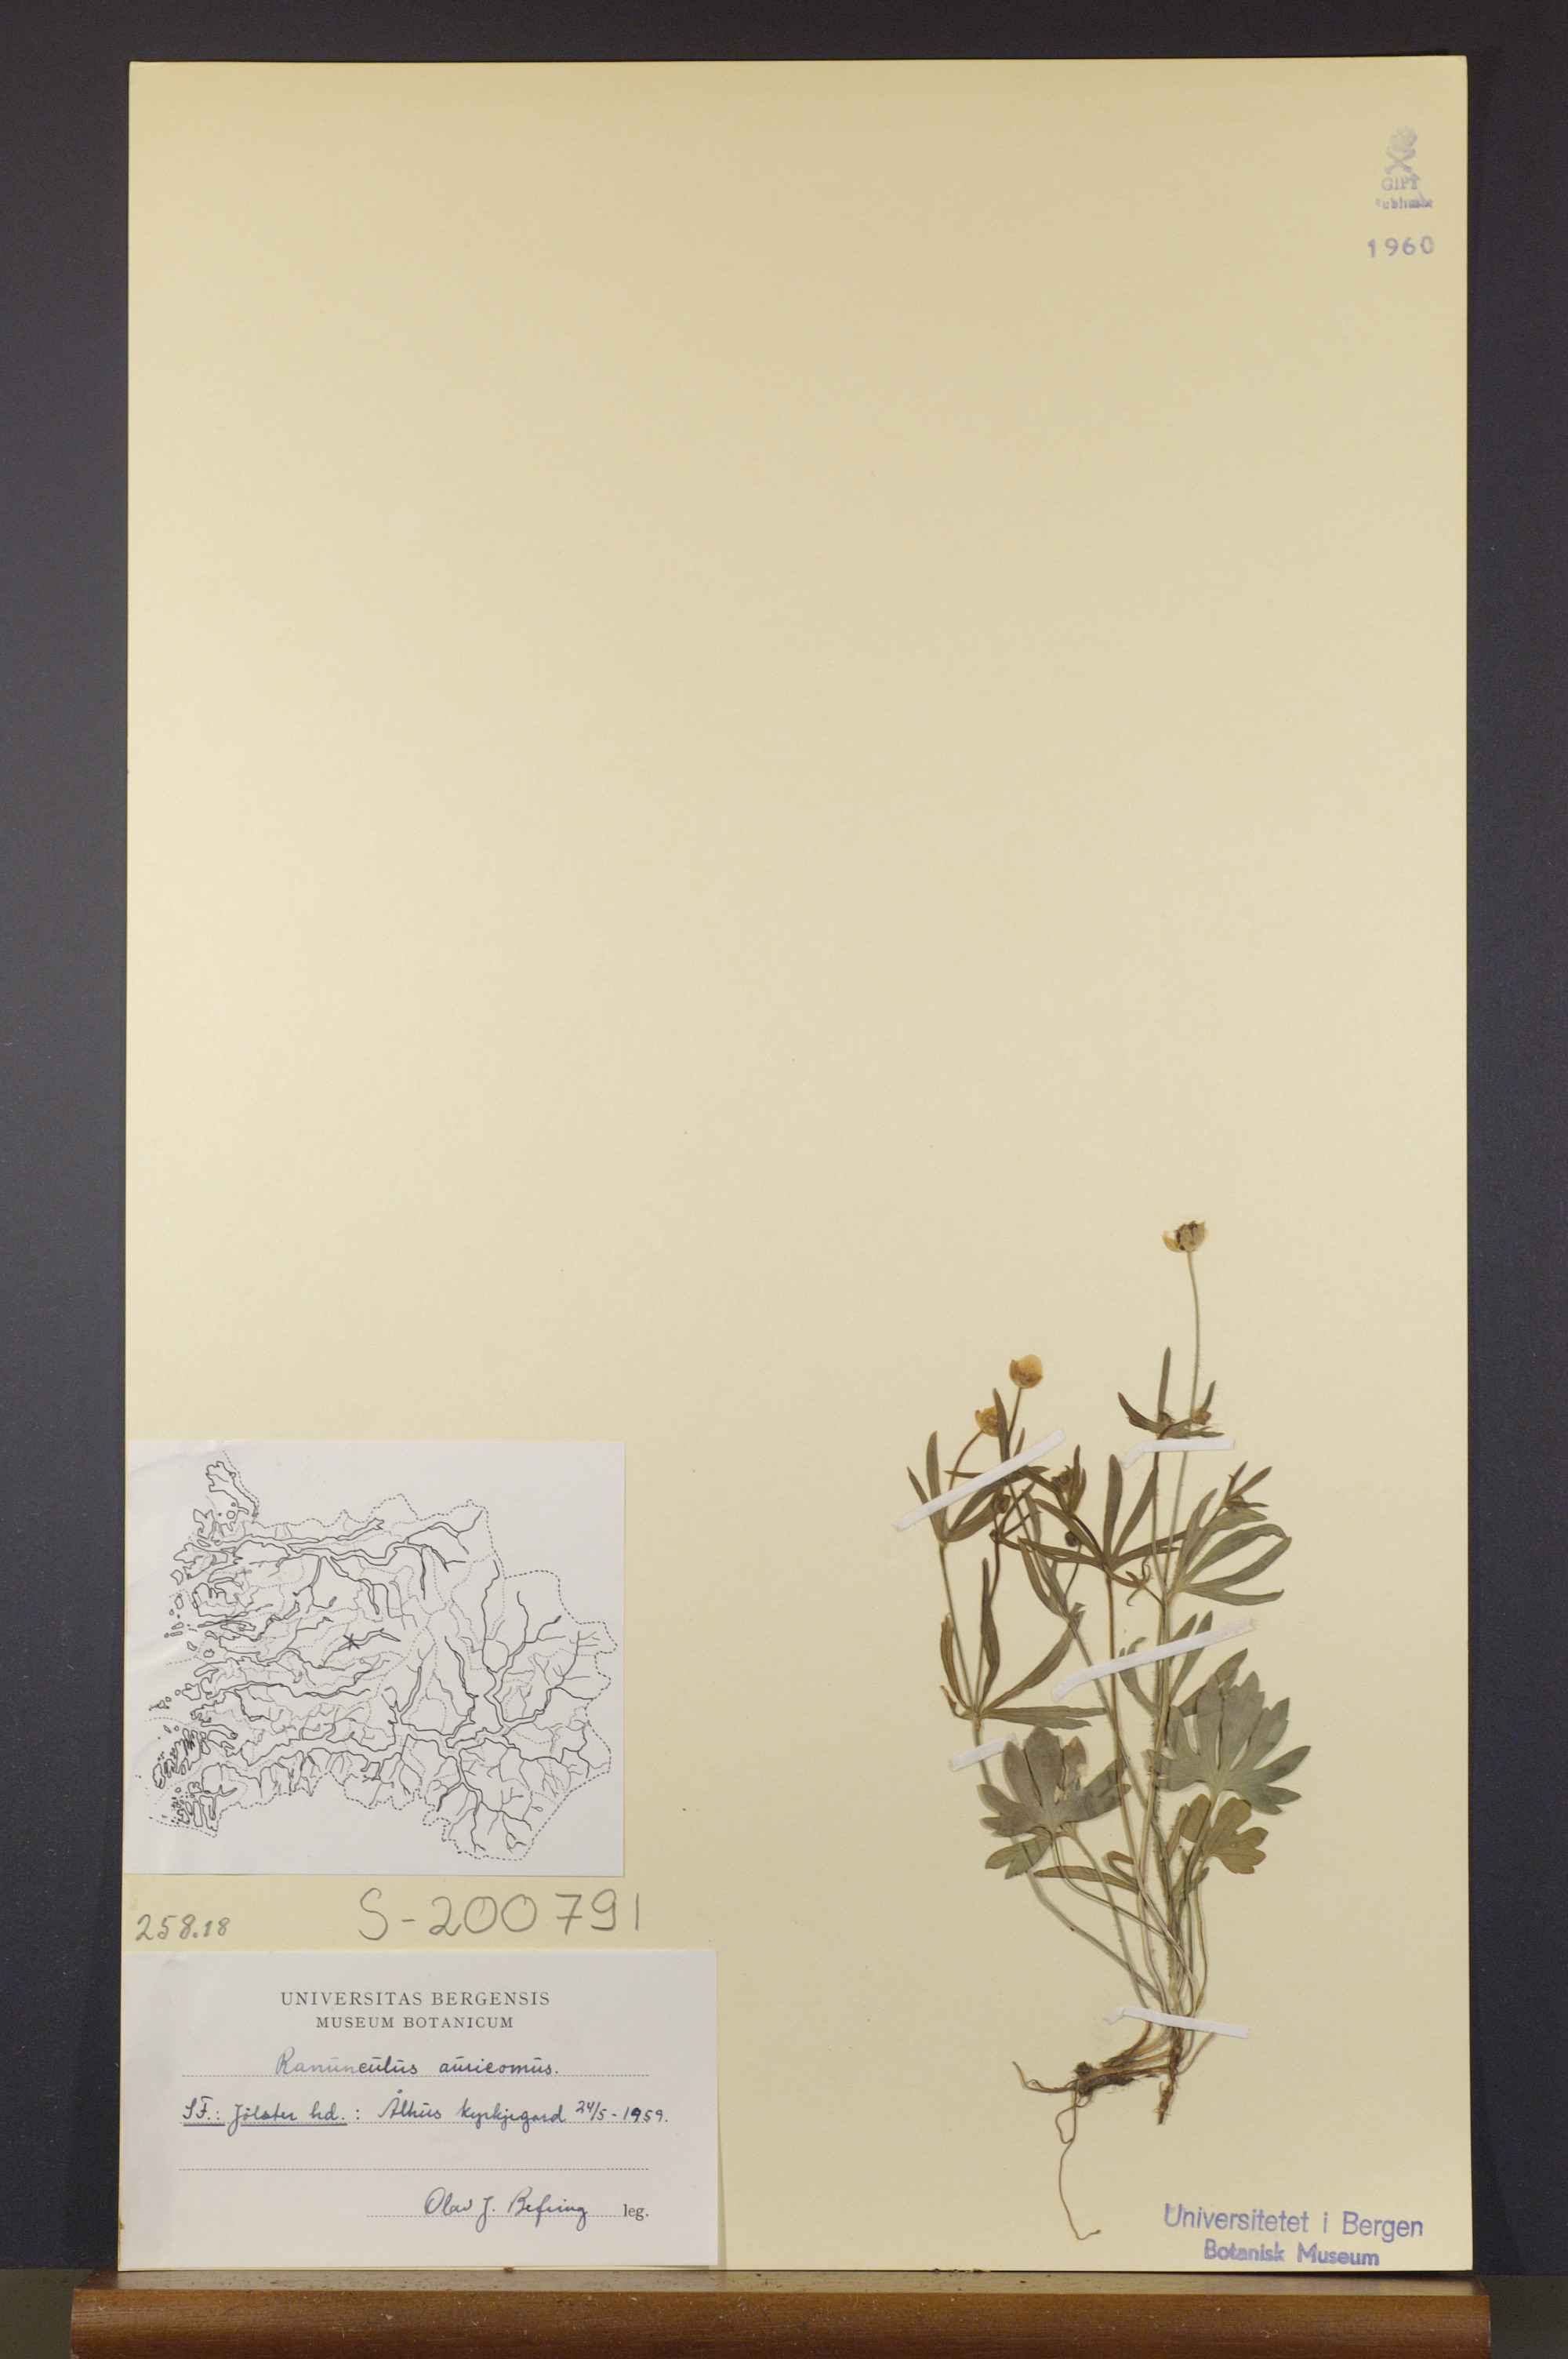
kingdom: Plantae
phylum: Tracheophyta
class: Magnoliopsida
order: Ranunculales
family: Ranunculaceae
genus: Ranunculus
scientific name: Ranunculus auricomus
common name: Goldilocks buttercup
